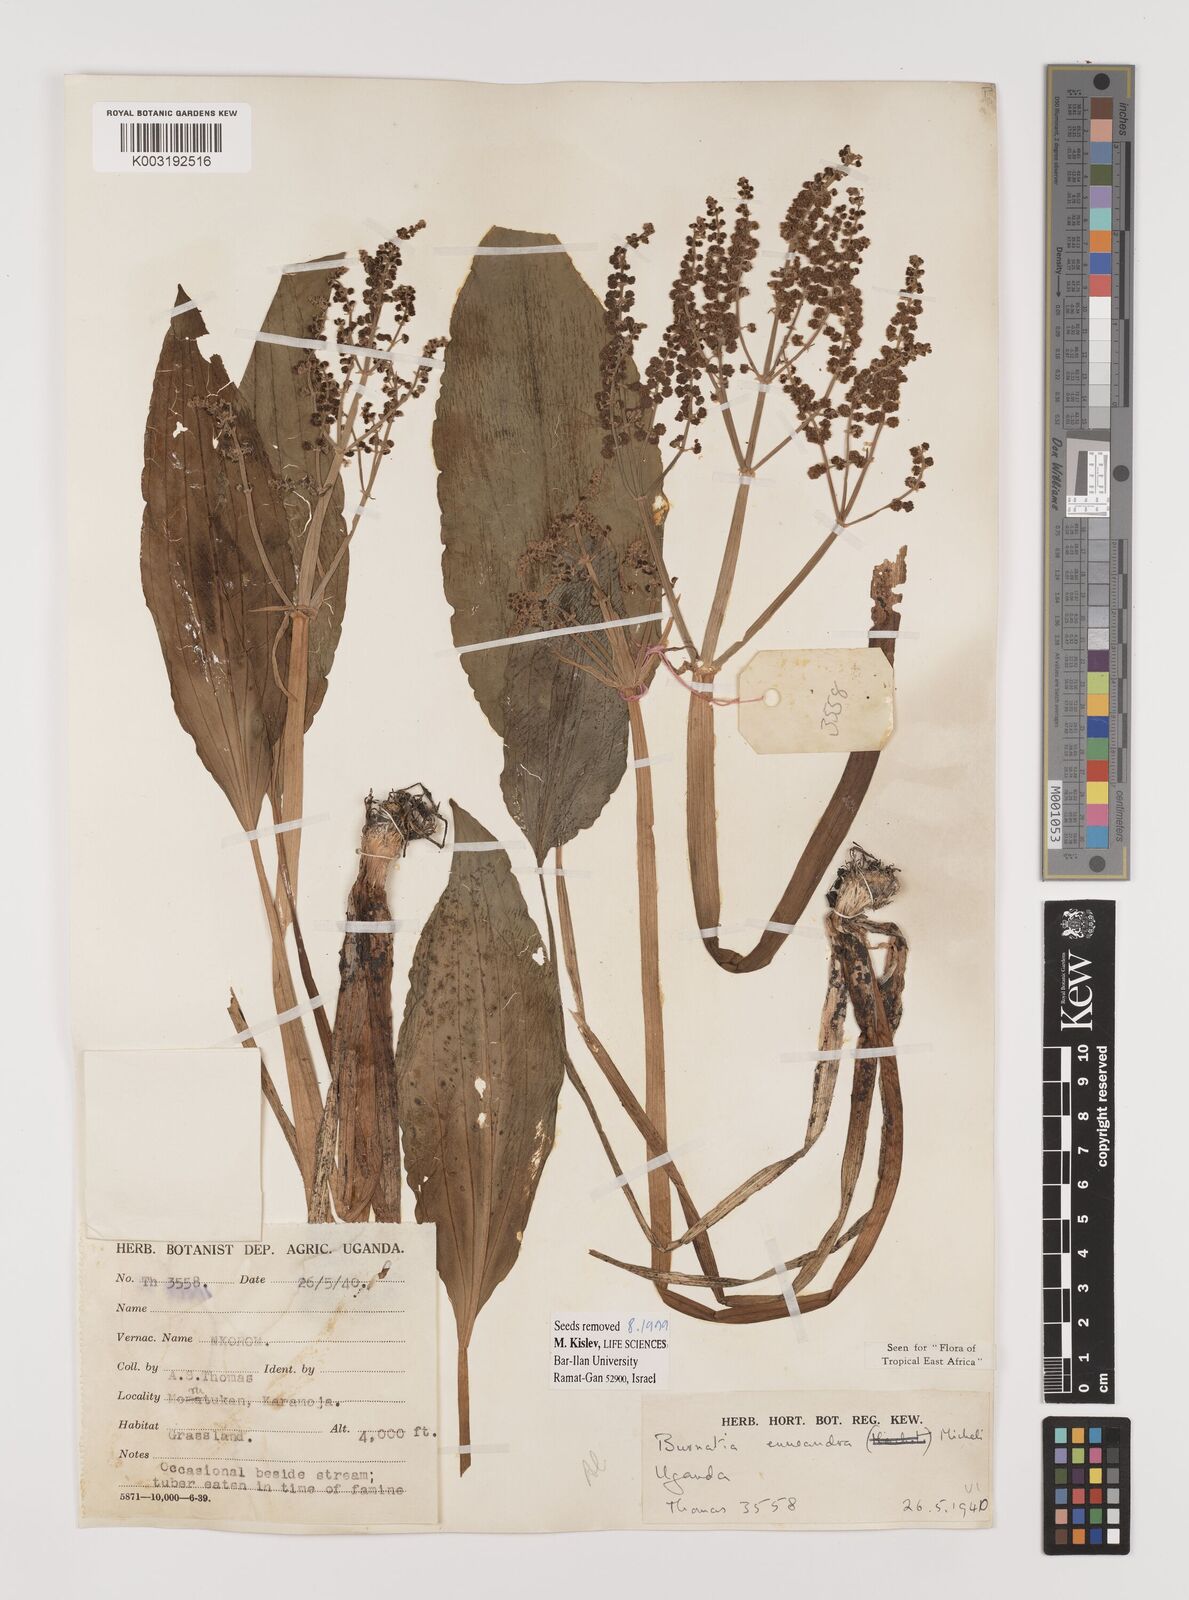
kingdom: Plantae
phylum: Tracheophyta
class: Liliopsida
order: Alismatales
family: Alismataceae
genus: Burnatia
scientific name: Burnatia enneandra
